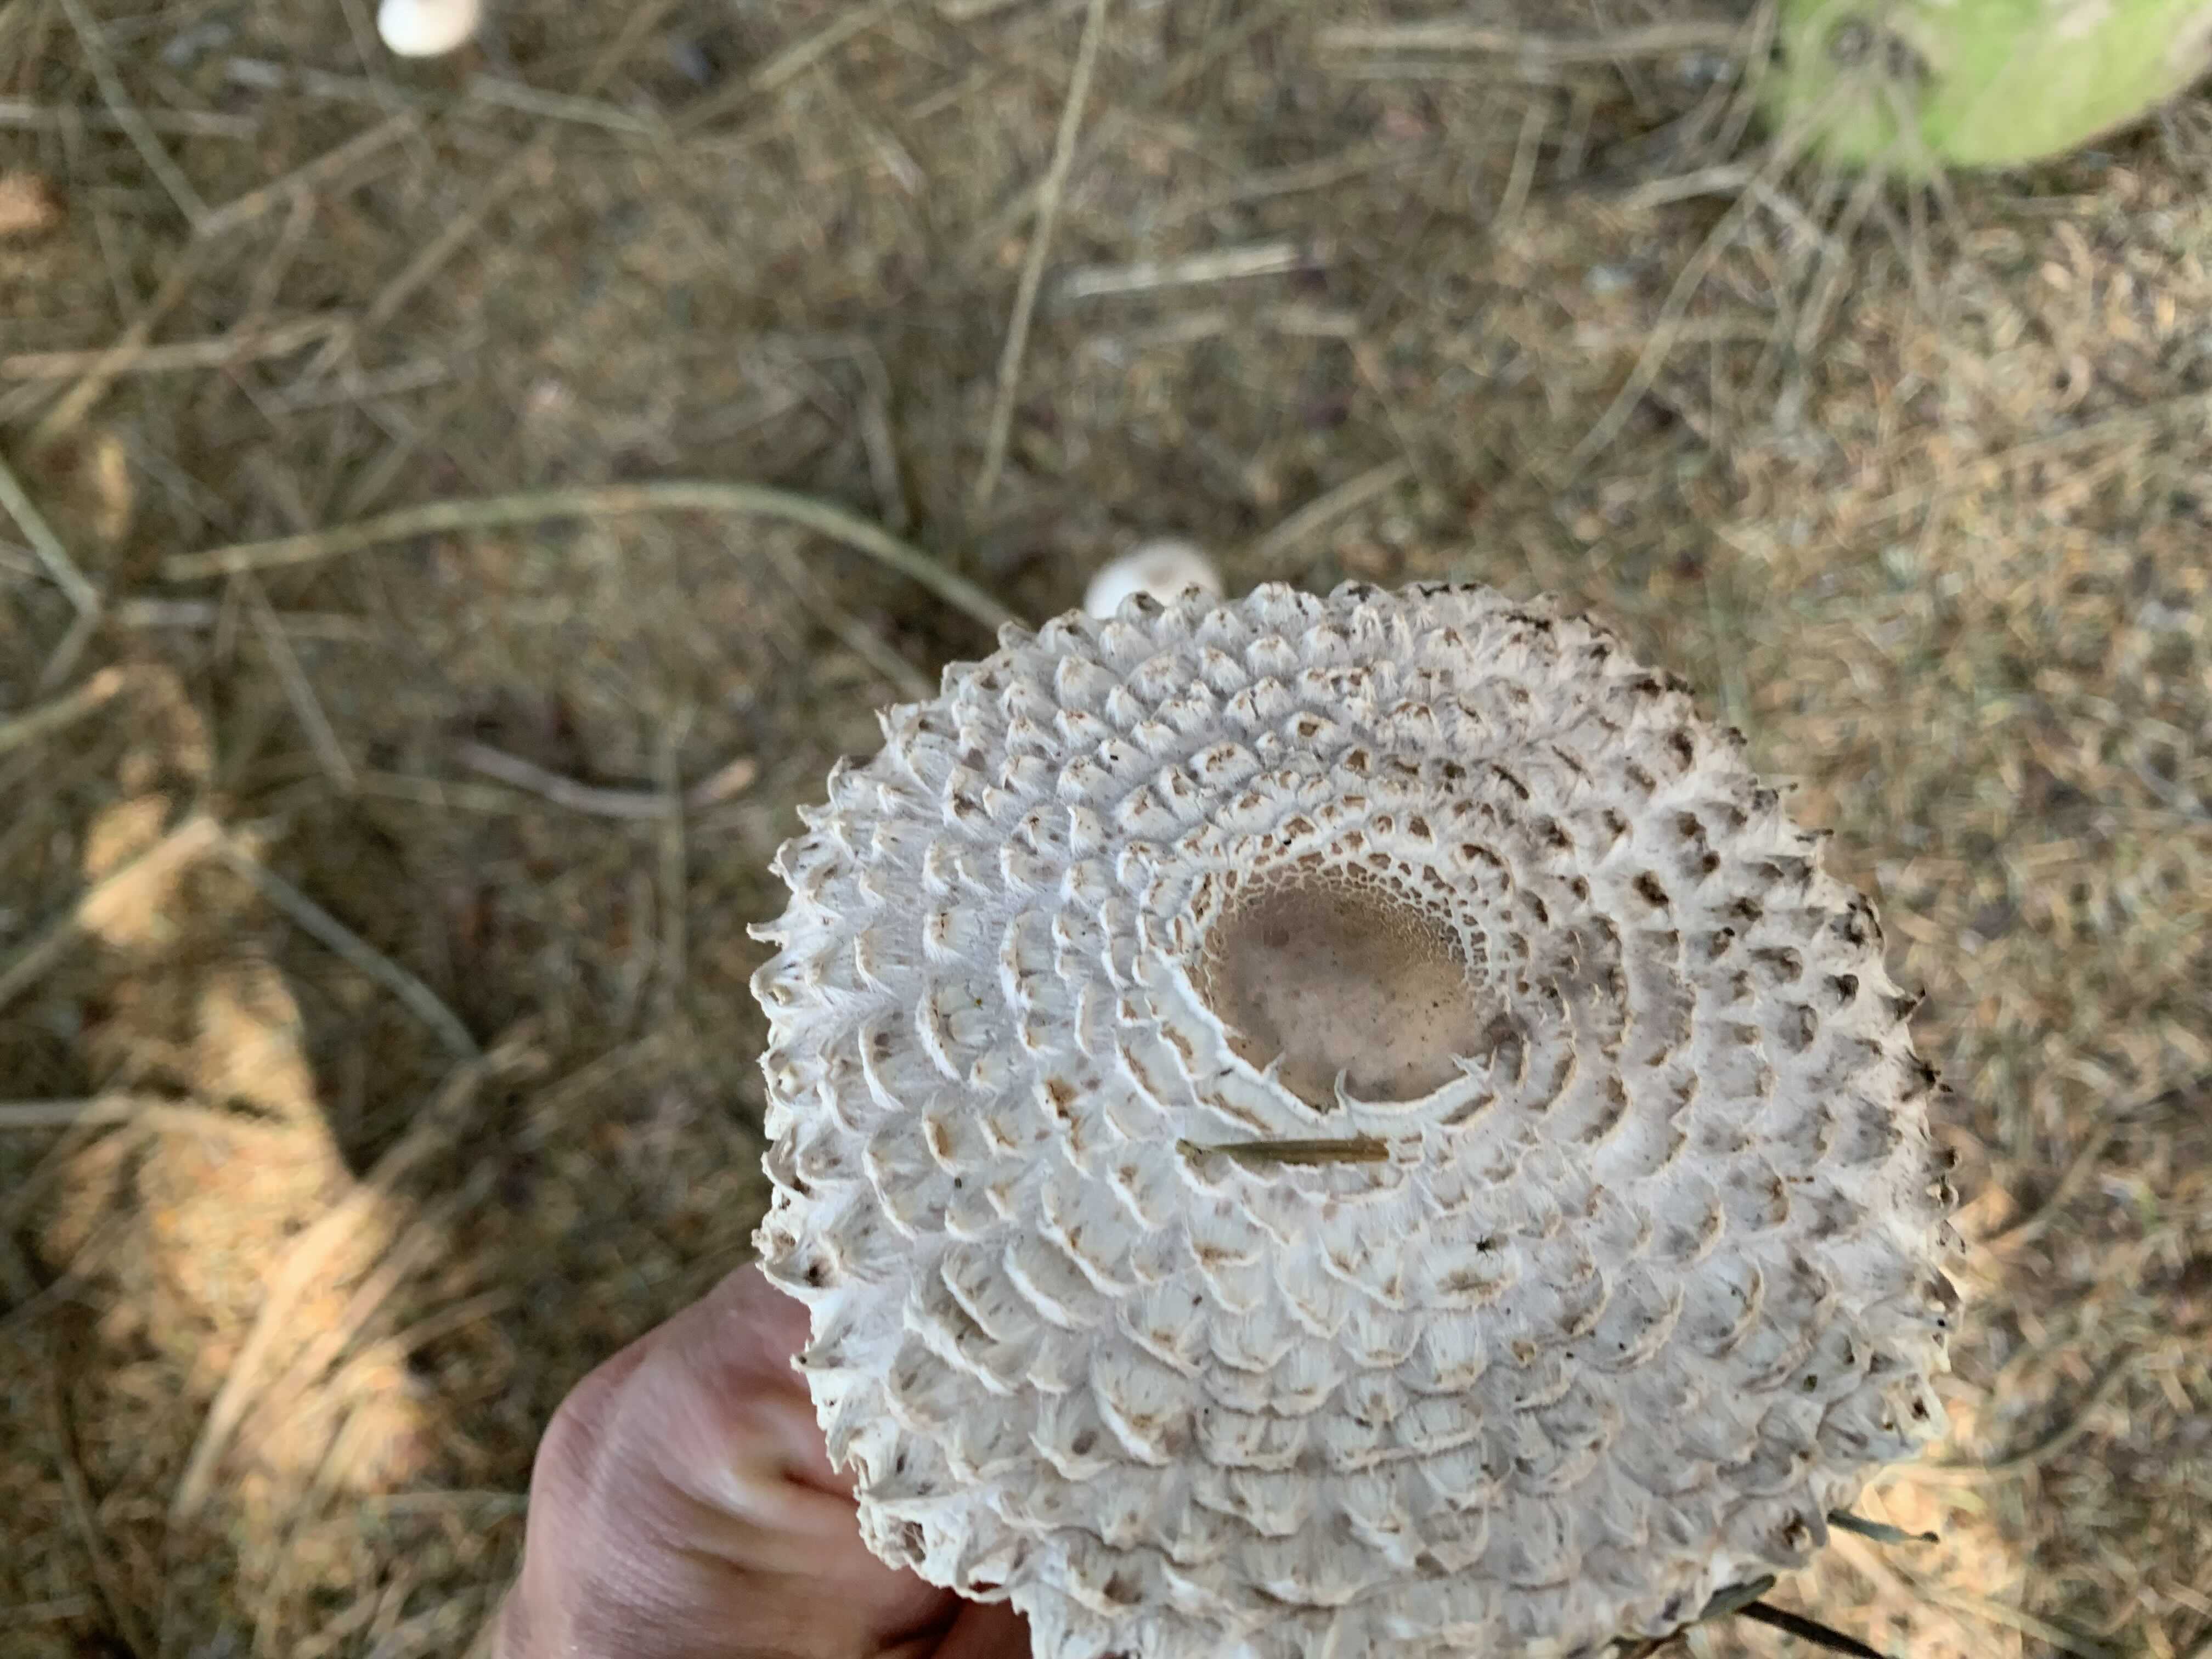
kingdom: Fungi
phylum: Basidiomycota
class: Agaricomycetes
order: Agaricales
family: Agaricaceae
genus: Leucoagaricus
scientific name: Leucoagaricus nympharum
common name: gran-silkehat
